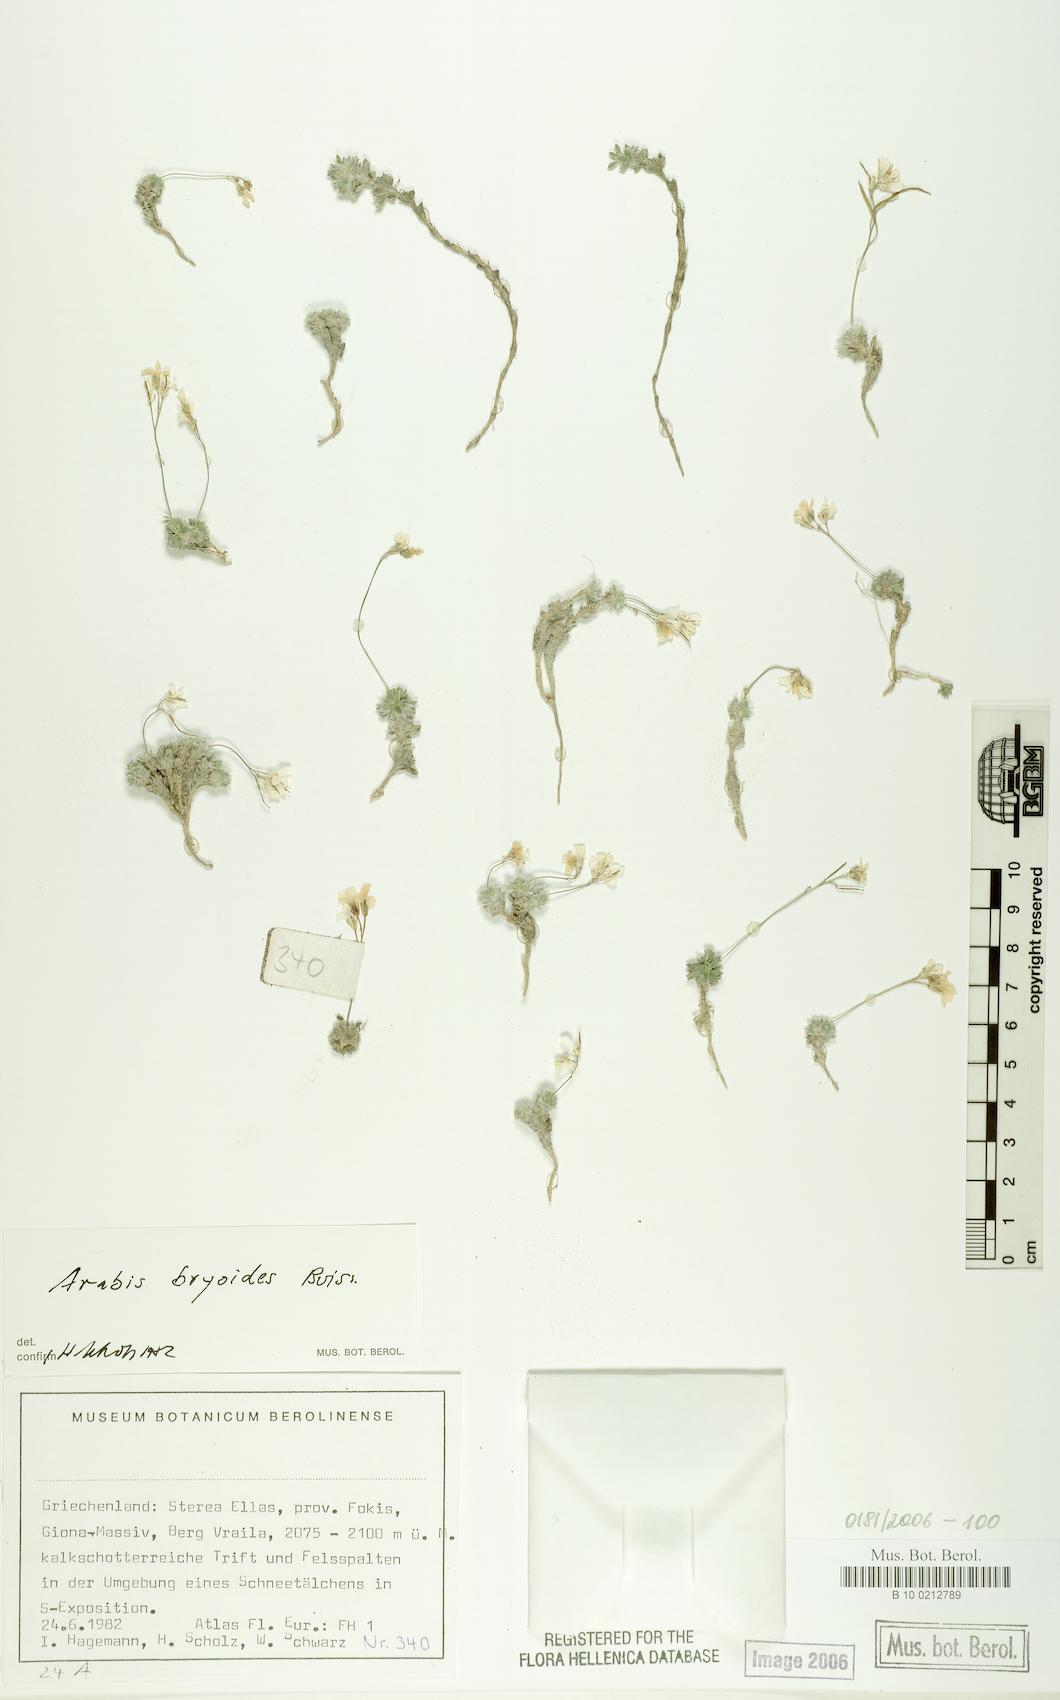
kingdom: Plantae
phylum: Tracheophyta
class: Magnoliopsida
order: Brassicales
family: Brassicaceae
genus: Arabis
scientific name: Arabis bryoides
